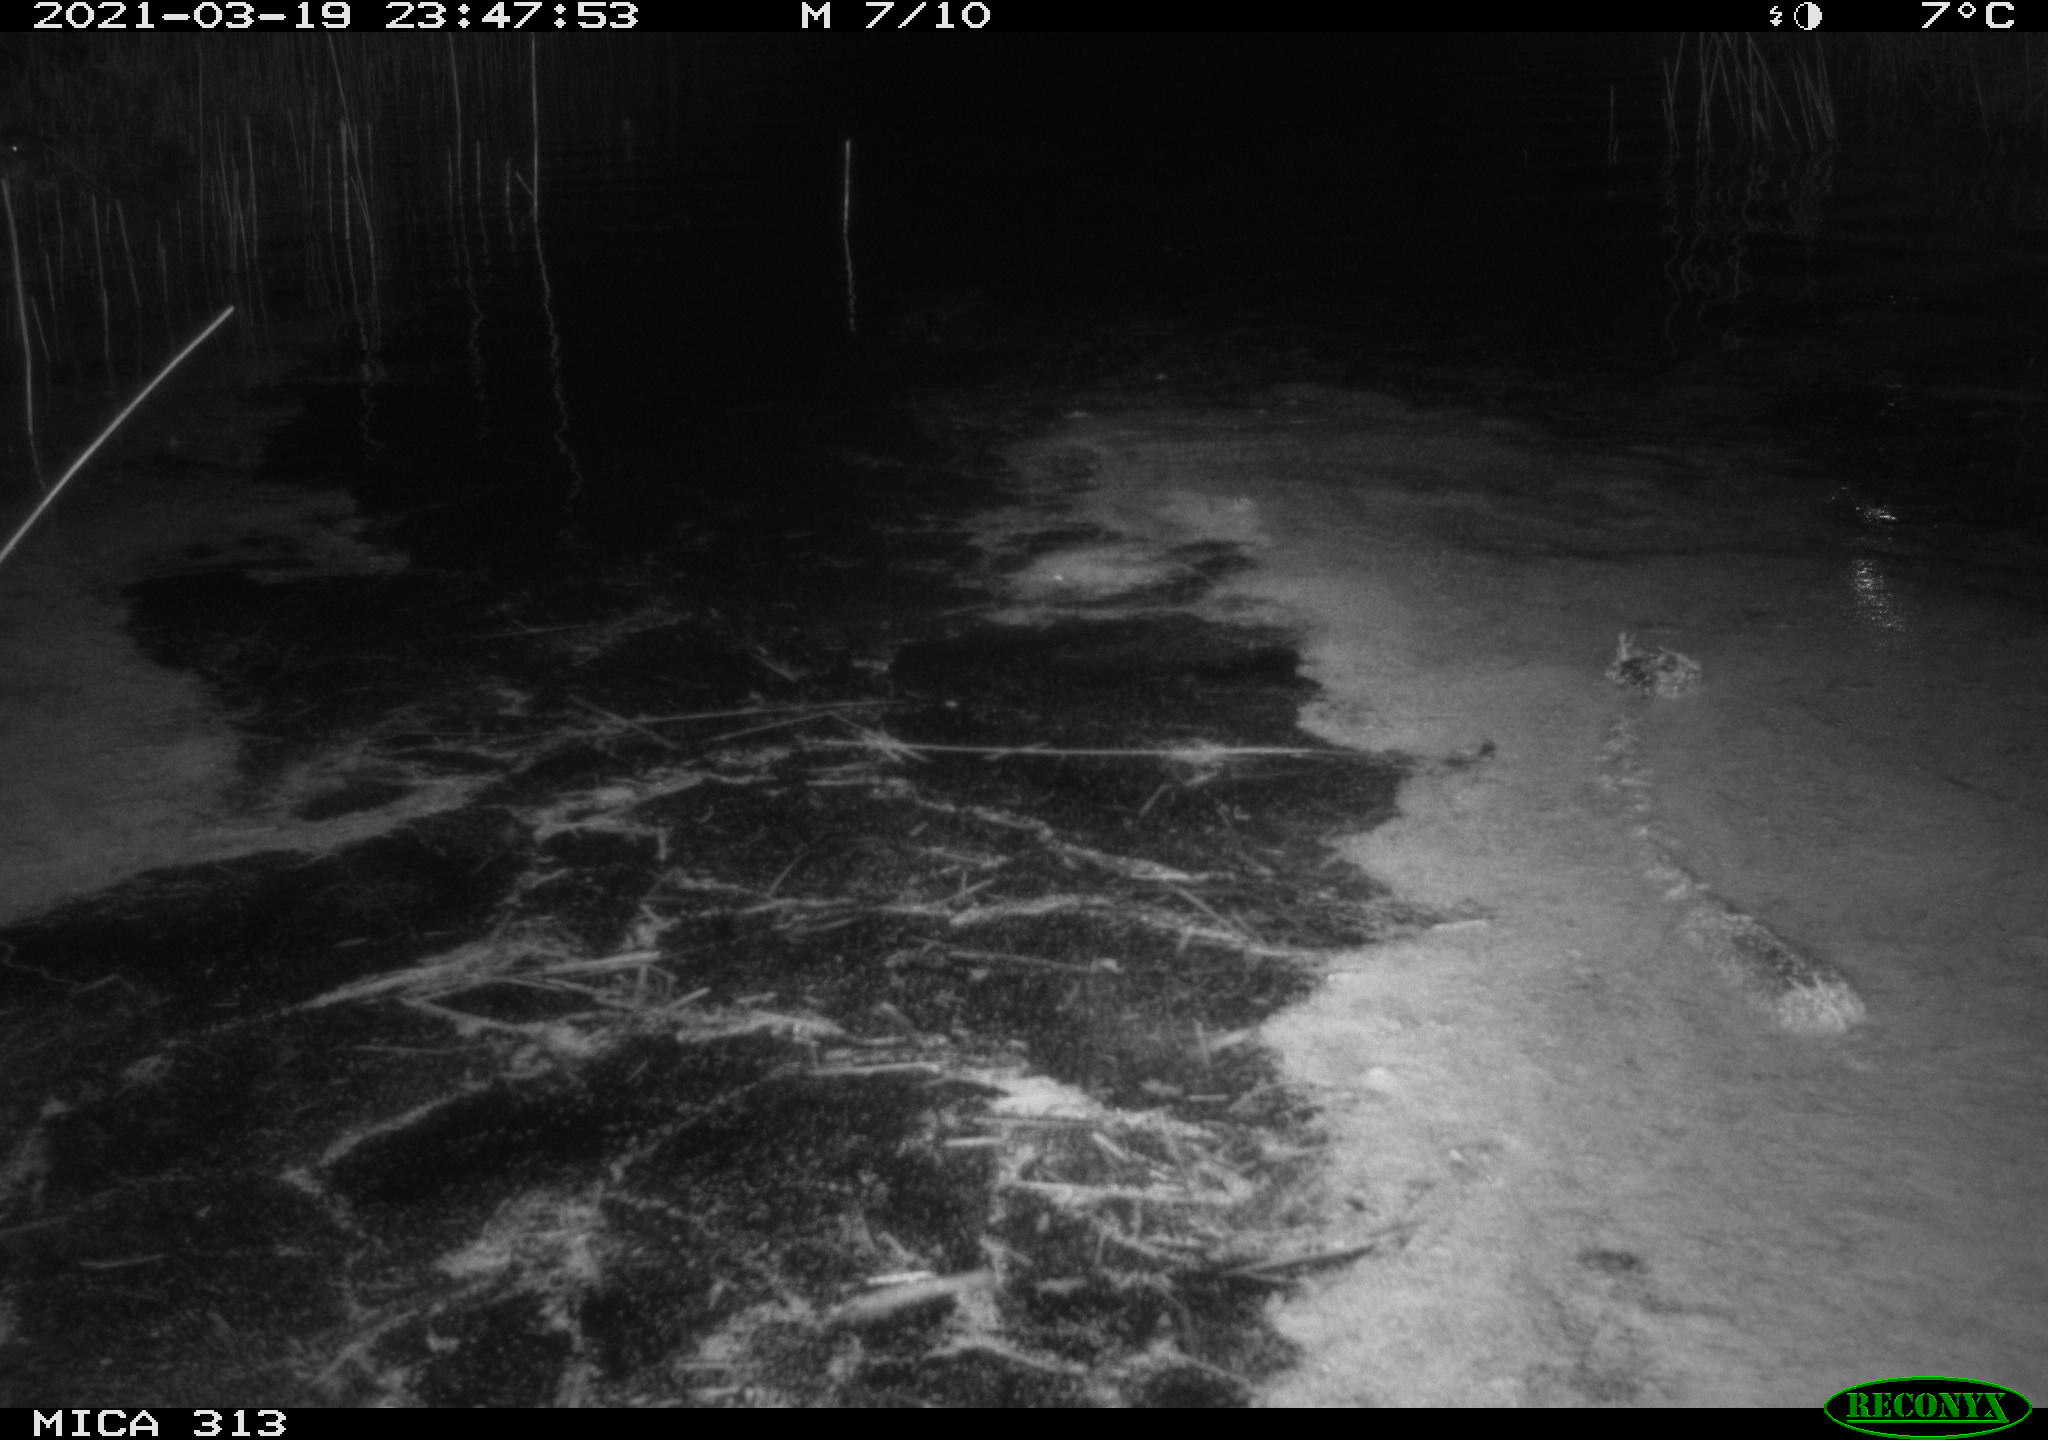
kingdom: Animalia
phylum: Chordata
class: Aves
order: Anseriformes
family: Anatidae
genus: Anas
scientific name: Anas platyrhynchos
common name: Mallard
